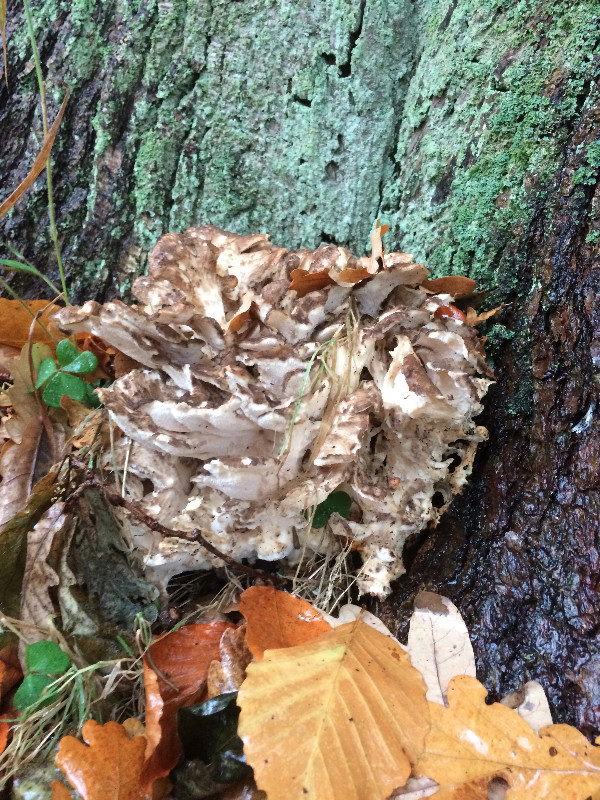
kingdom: Fungi
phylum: Basidiomycota
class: Agaricomycetes
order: Polyporales
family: Grifolaceae
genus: Grifola
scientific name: Grifola frondosa
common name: tueporesvamp
